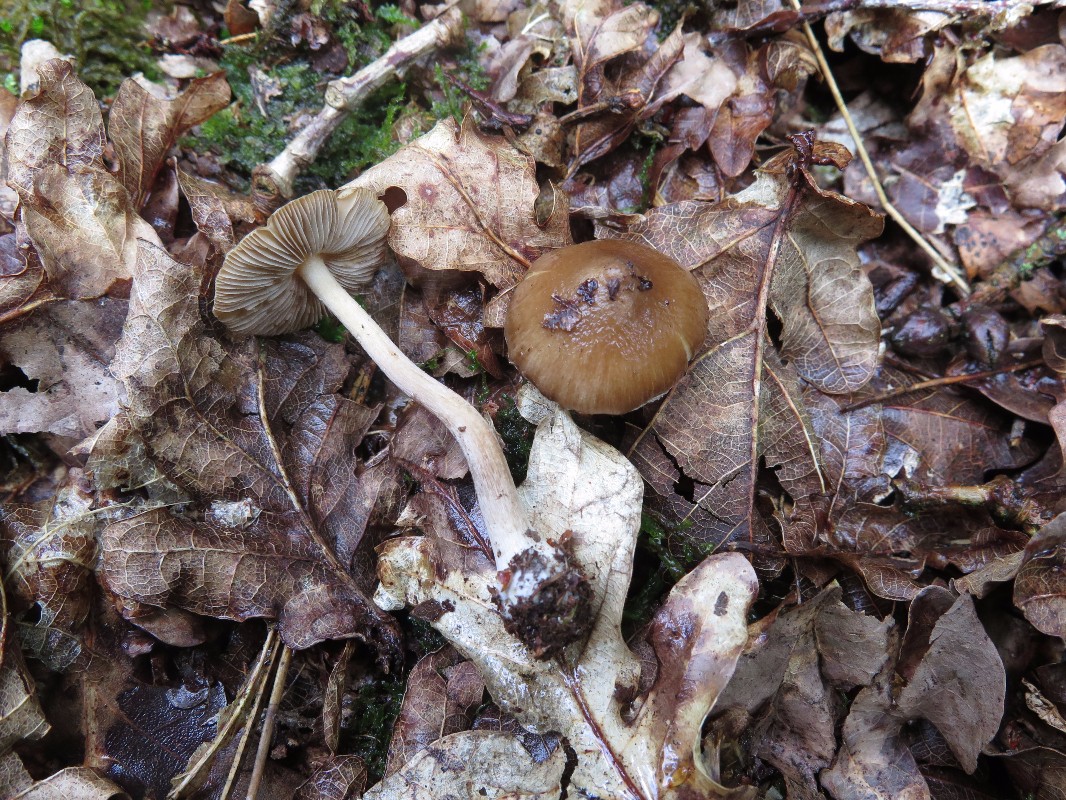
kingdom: Fungi
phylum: Basidiomycota
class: Agaricomycetes
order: Agaricales
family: Inocybaceae
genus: Inocybe
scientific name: Inocybe napipes
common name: roeknoldet trævlhat
